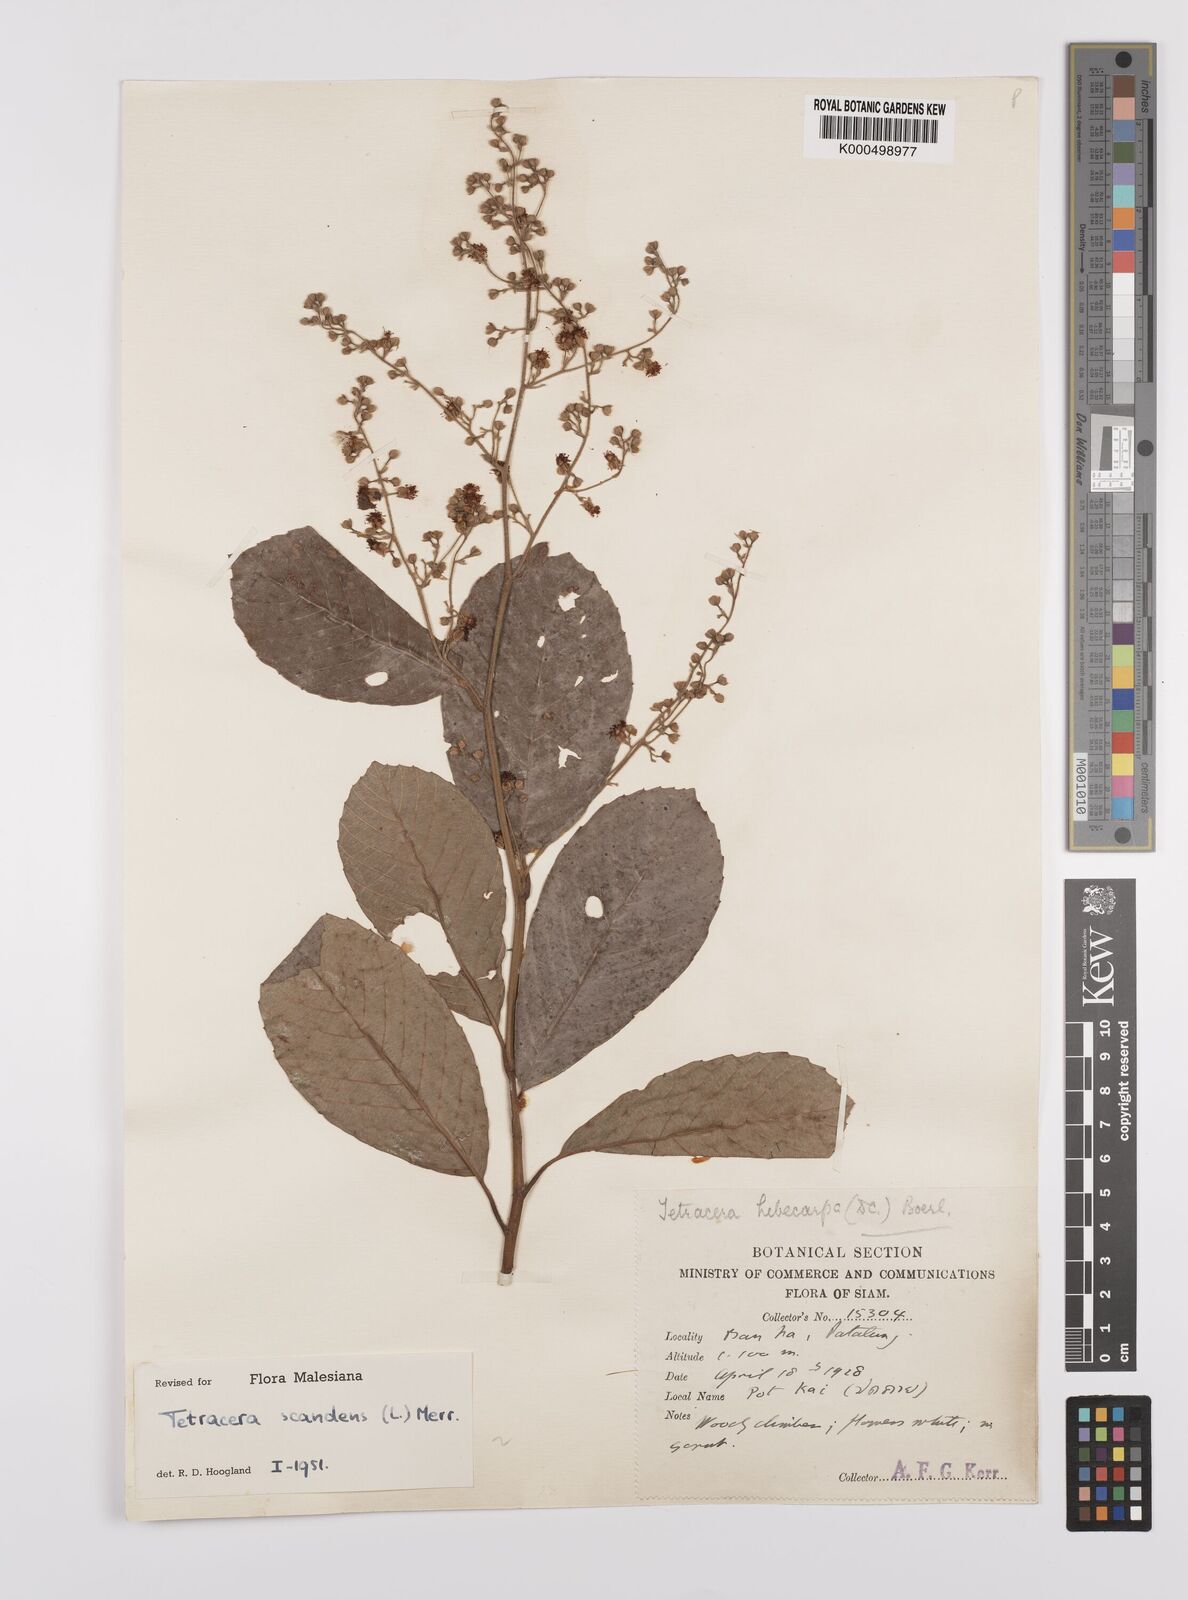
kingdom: Plantae
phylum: Tracheophyta
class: Magnoliopsida
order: Dilleniales
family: Dilleniaceae
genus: Tetracera
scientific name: Tetracera scandens
